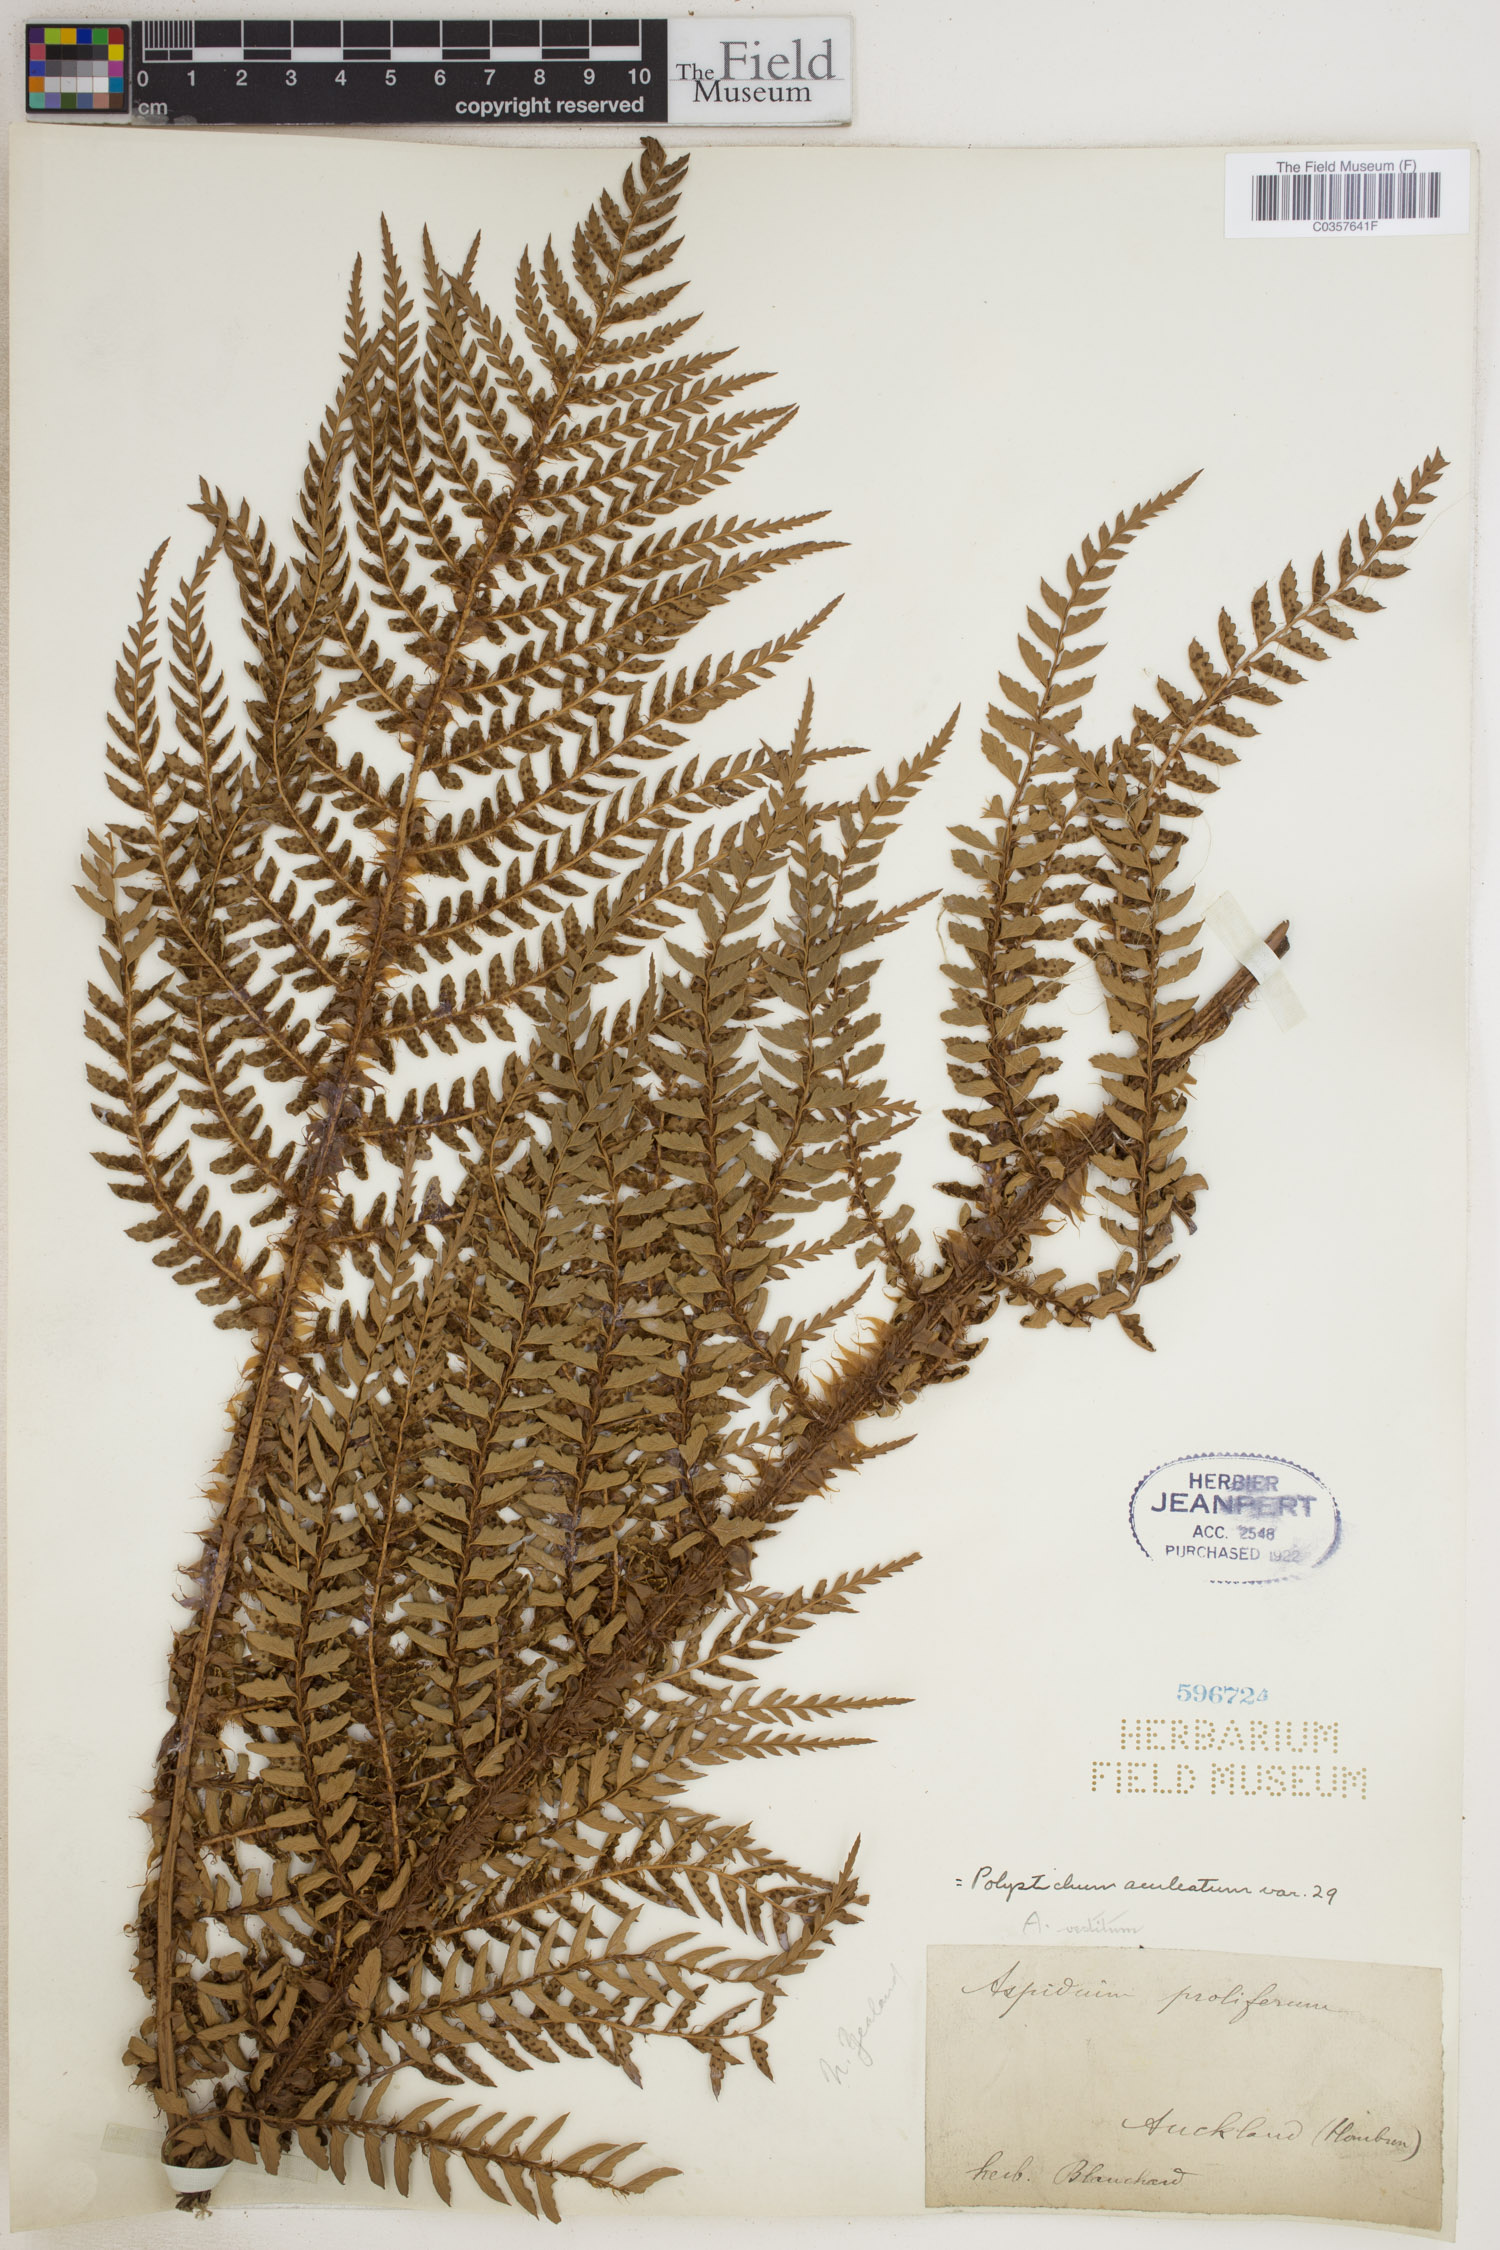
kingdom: Plantae
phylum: Tracheophyta
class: Polypodiopsida
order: Polypodiales
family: Dryopteridaceae
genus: Polystichum
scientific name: Polystichum aculeatum
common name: Hard shield-fern
